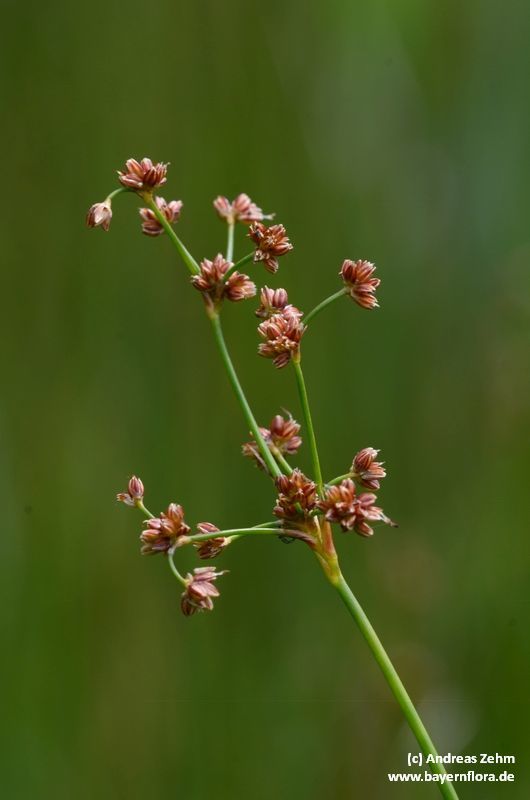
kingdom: Plantae
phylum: Tracheophyta
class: Liliopsida
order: Poales
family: Juncaceae
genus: Juncus
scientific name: Juncus subnodulosus
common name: Blunt-flowered rush
